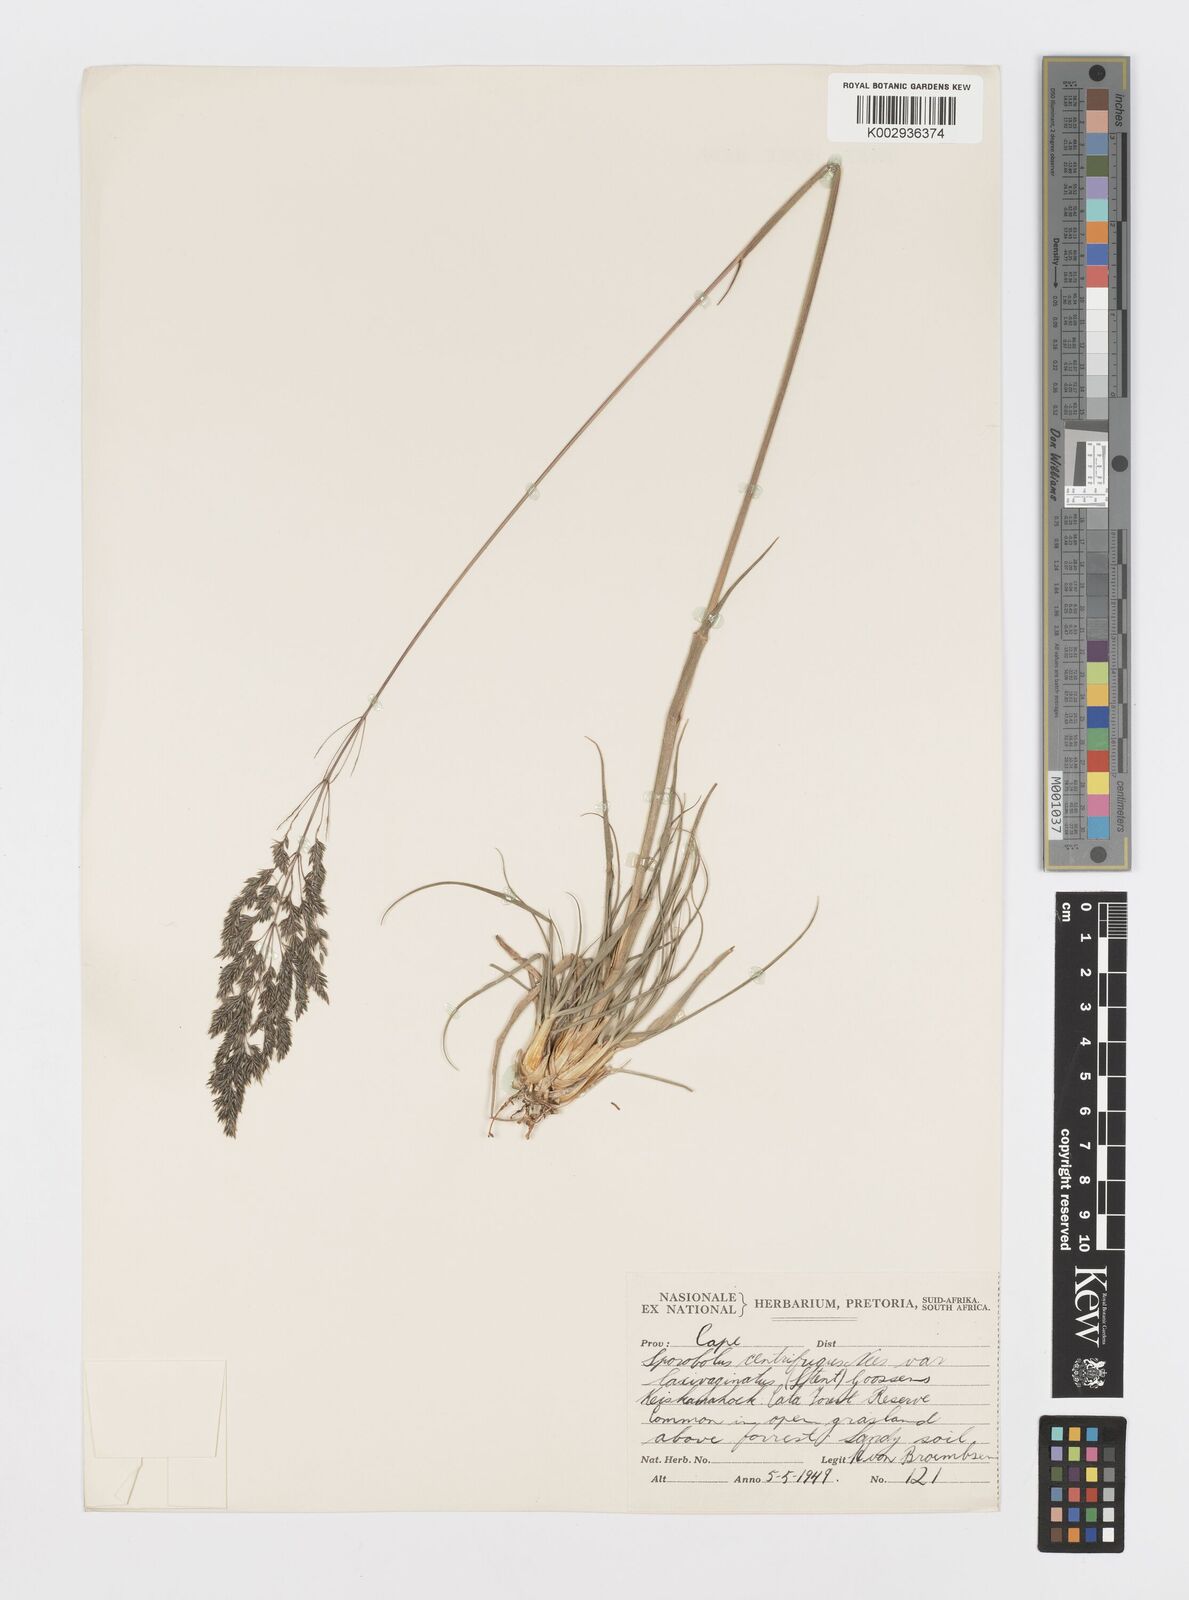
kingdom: Plantae
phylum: Tracheophyta
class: Liliopsida
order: Poales
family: Poaceae
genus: Sporobolus
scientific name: Sporobolus centrifugus
